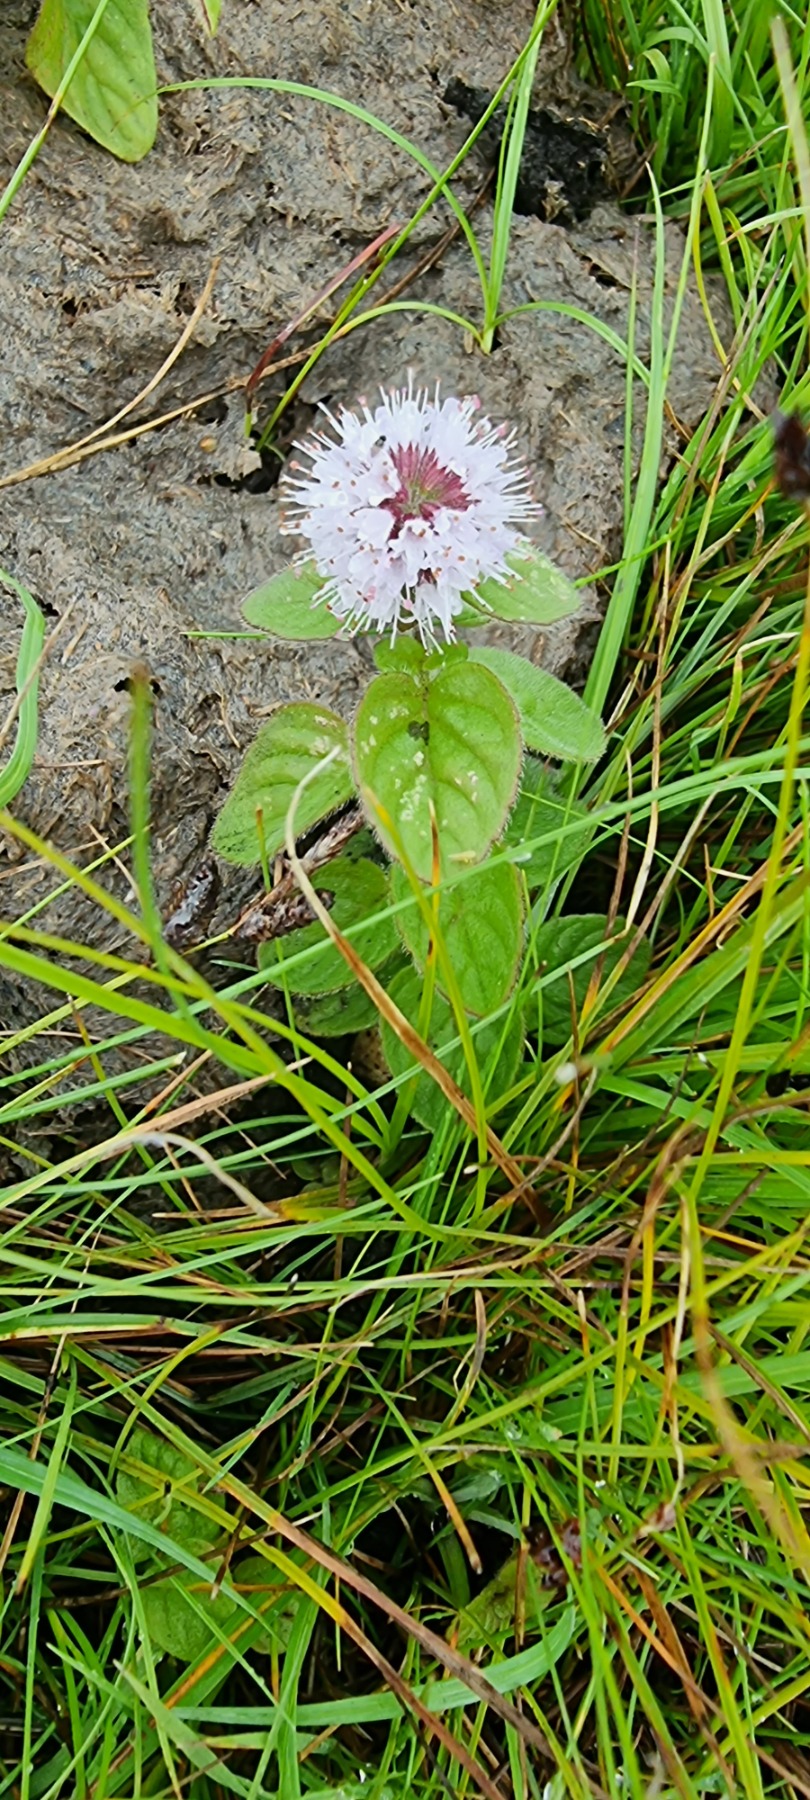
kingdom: Plantae
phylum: Tracheophyta
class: Magnoliopsida
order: Lamiales
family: Lamiaceae
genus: Mentha
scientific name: Mentha aquatica
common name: Vand-mynte
